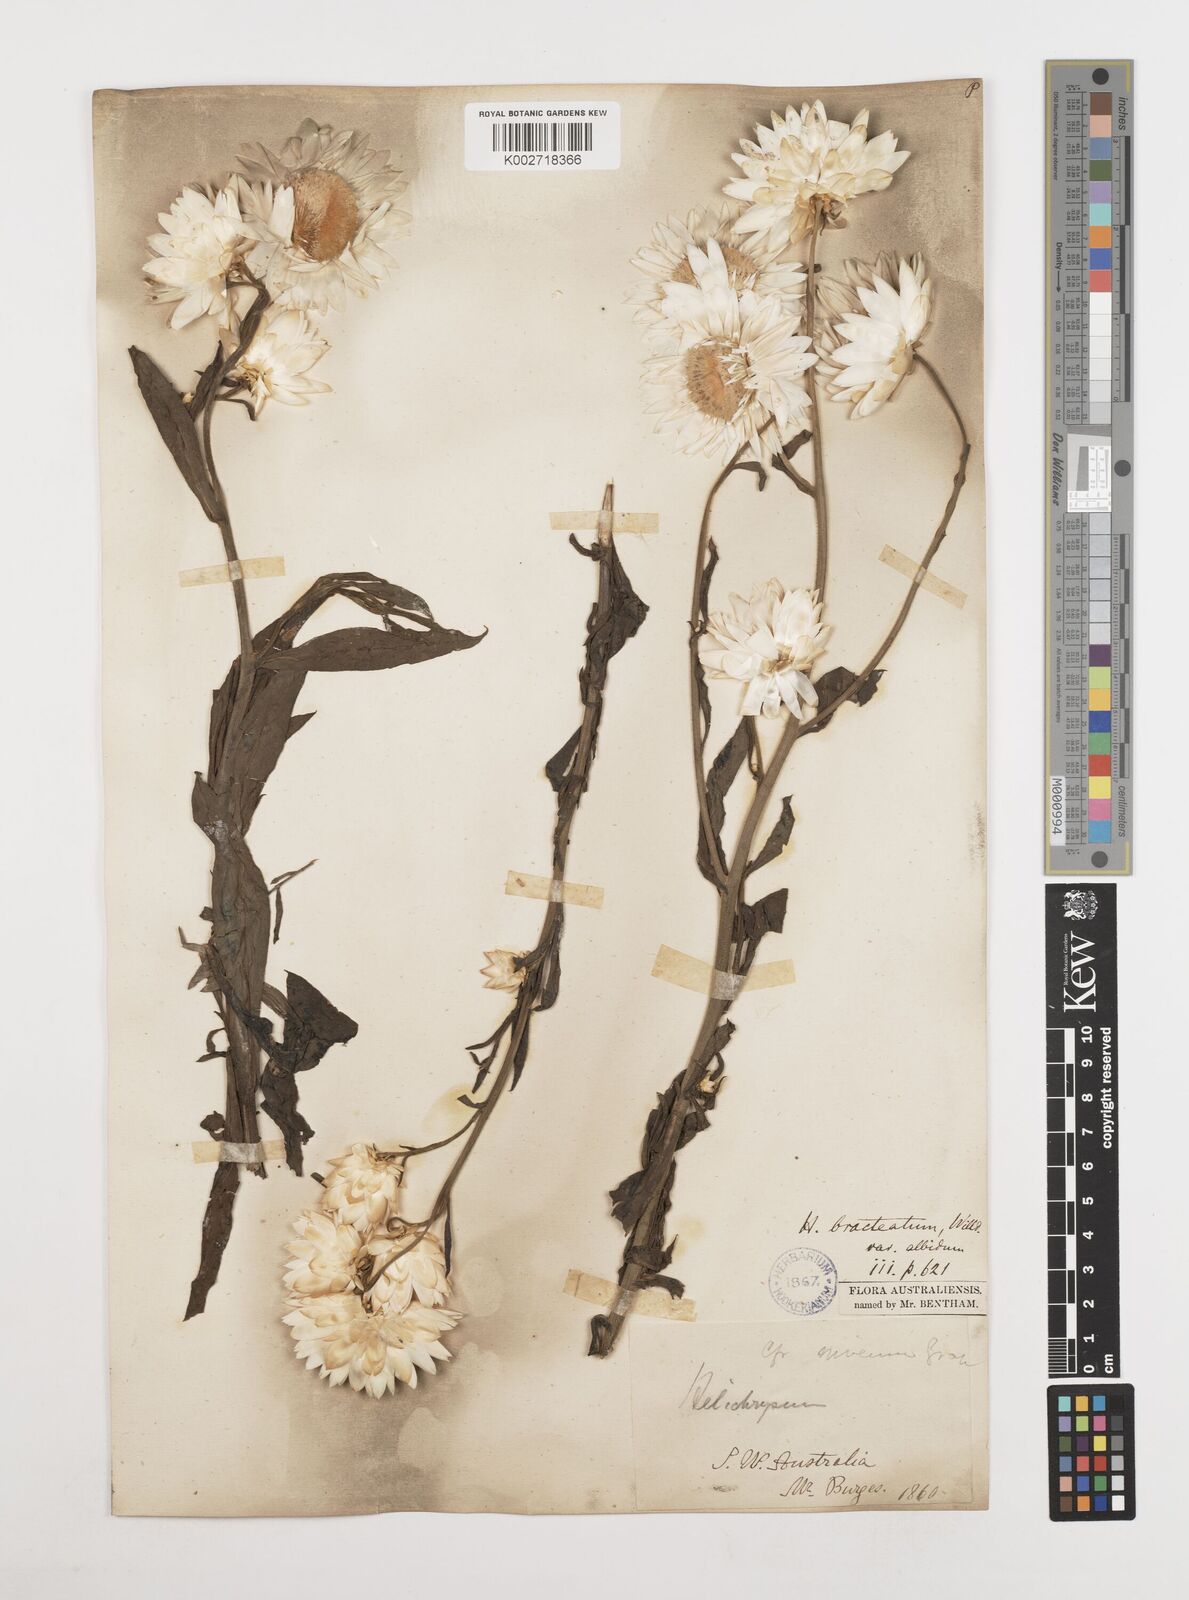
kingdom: Plantae
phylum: Tracheophyta
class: Magnoliopsida
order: Asterales
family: Asteraceae
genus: Xerochrysum
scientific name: Xerochrysum bracteatum
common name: Bracted strawflower
